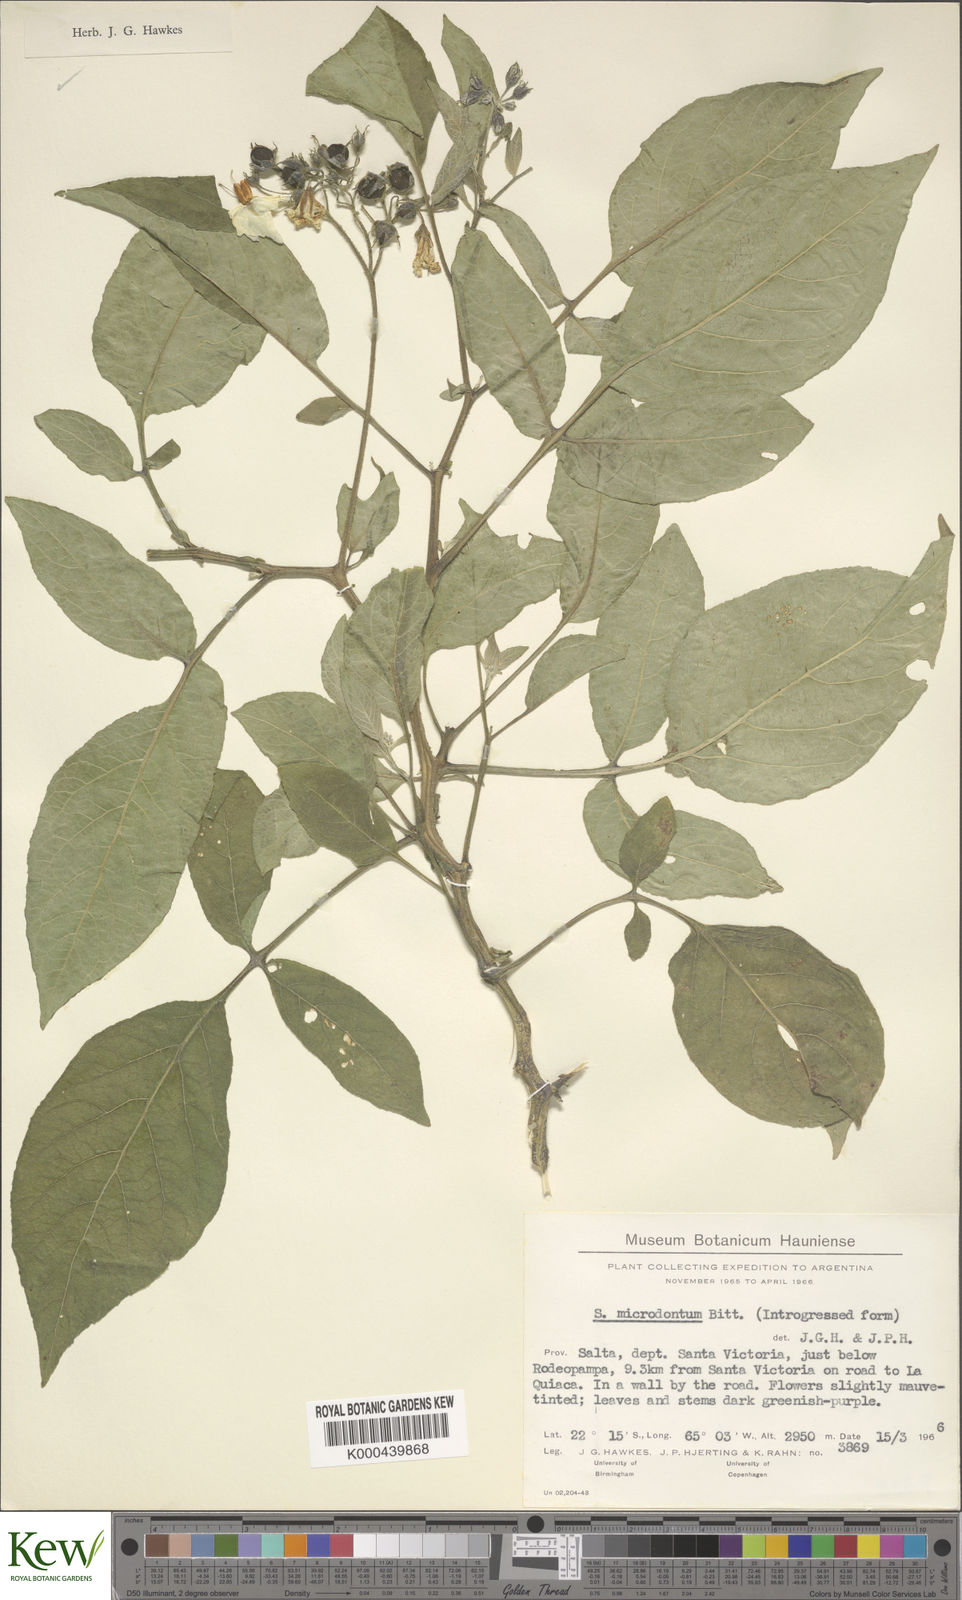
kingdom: Plantae
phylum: Tracheophyta
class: Magnoliopsida
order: Solanales
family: Solanaceae
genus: Solanum
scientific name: Solanum microdontum
